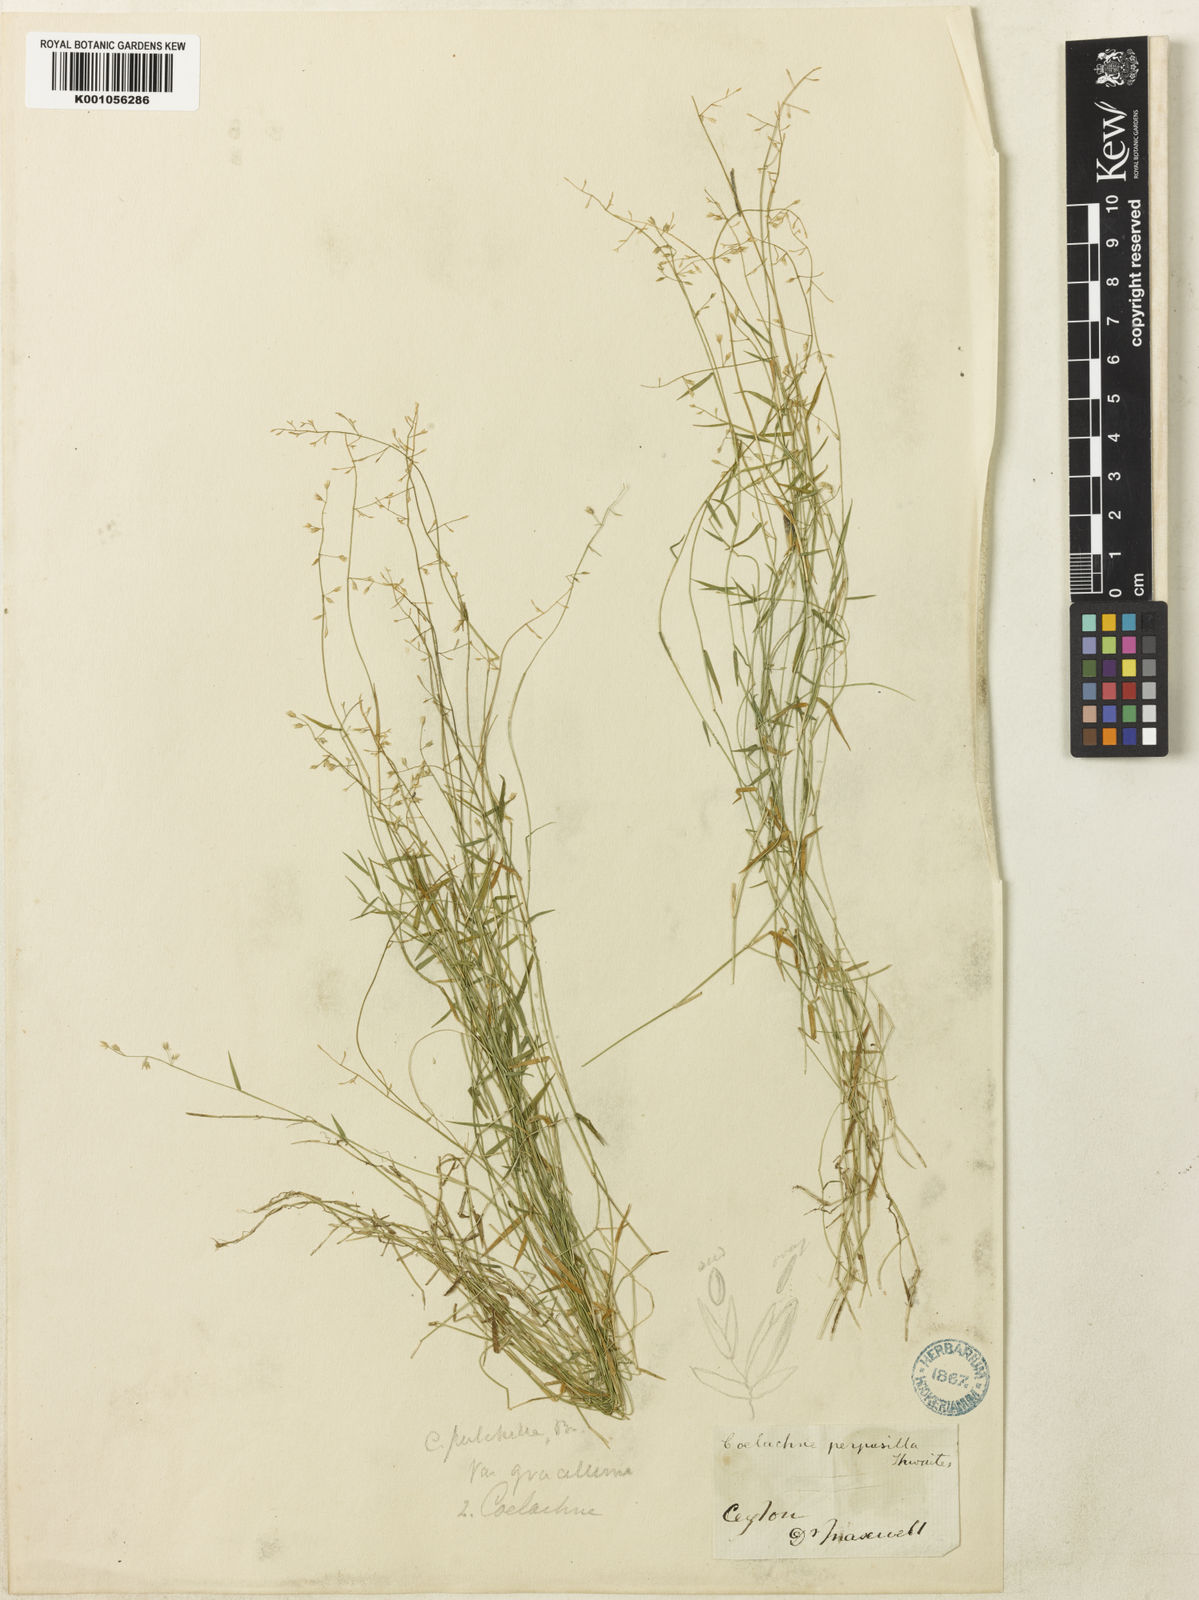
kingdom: Plantae
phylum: Tracheophyta
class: Liliopsida
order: Poales
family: Poaceae
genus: Coelachne
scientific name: Coelachne perpusilla
